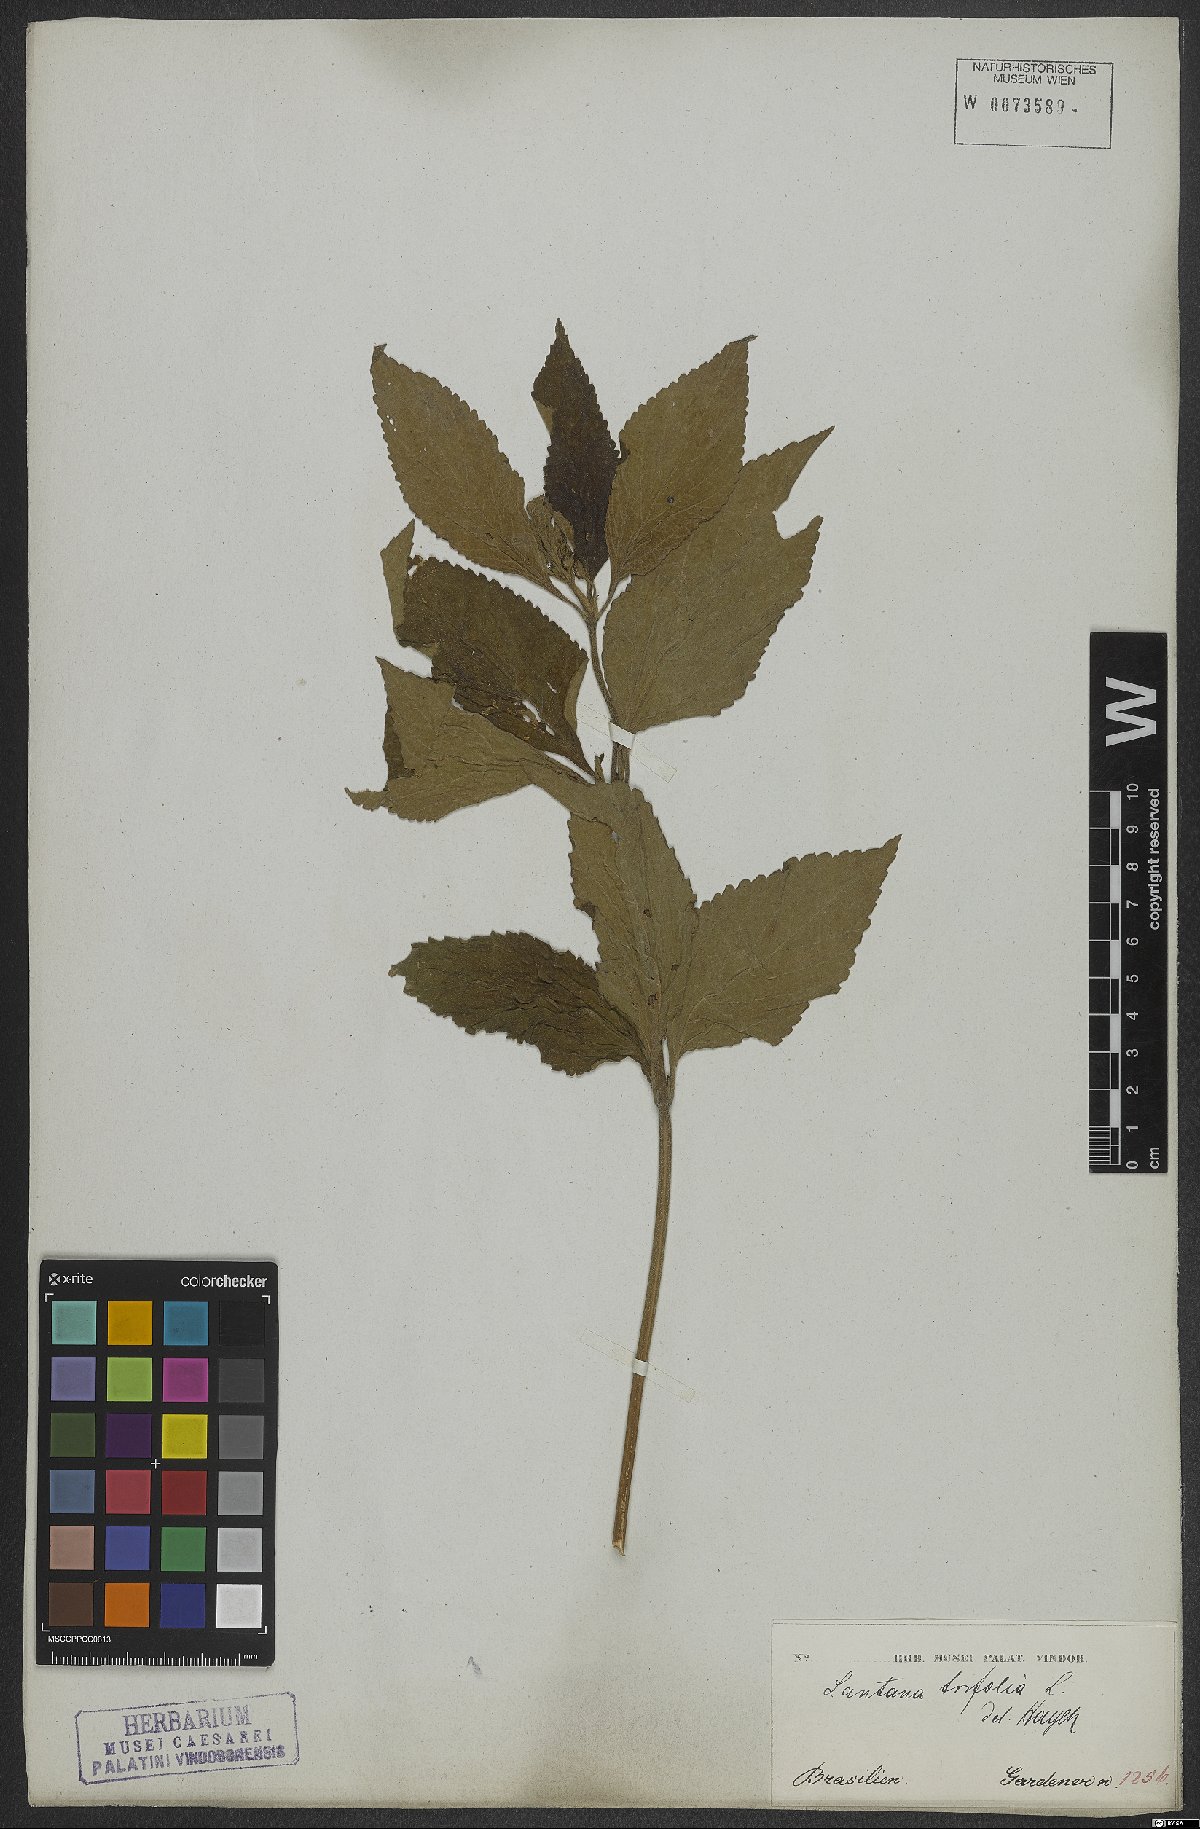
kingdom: Plantae
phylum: Tracheophyta
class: Magnoliopsida
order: Lamiales
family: Verbenaceae
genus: Lantana
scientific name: Lantana trifolia
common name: Sweet-sage
